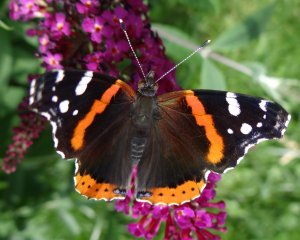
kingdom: Animalia
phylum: Arthropoda
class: Insecta
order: Lepidoptera
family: Nymphalidae
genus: Vanessa
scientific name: Vanessa atalanta
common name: Red Admiral
